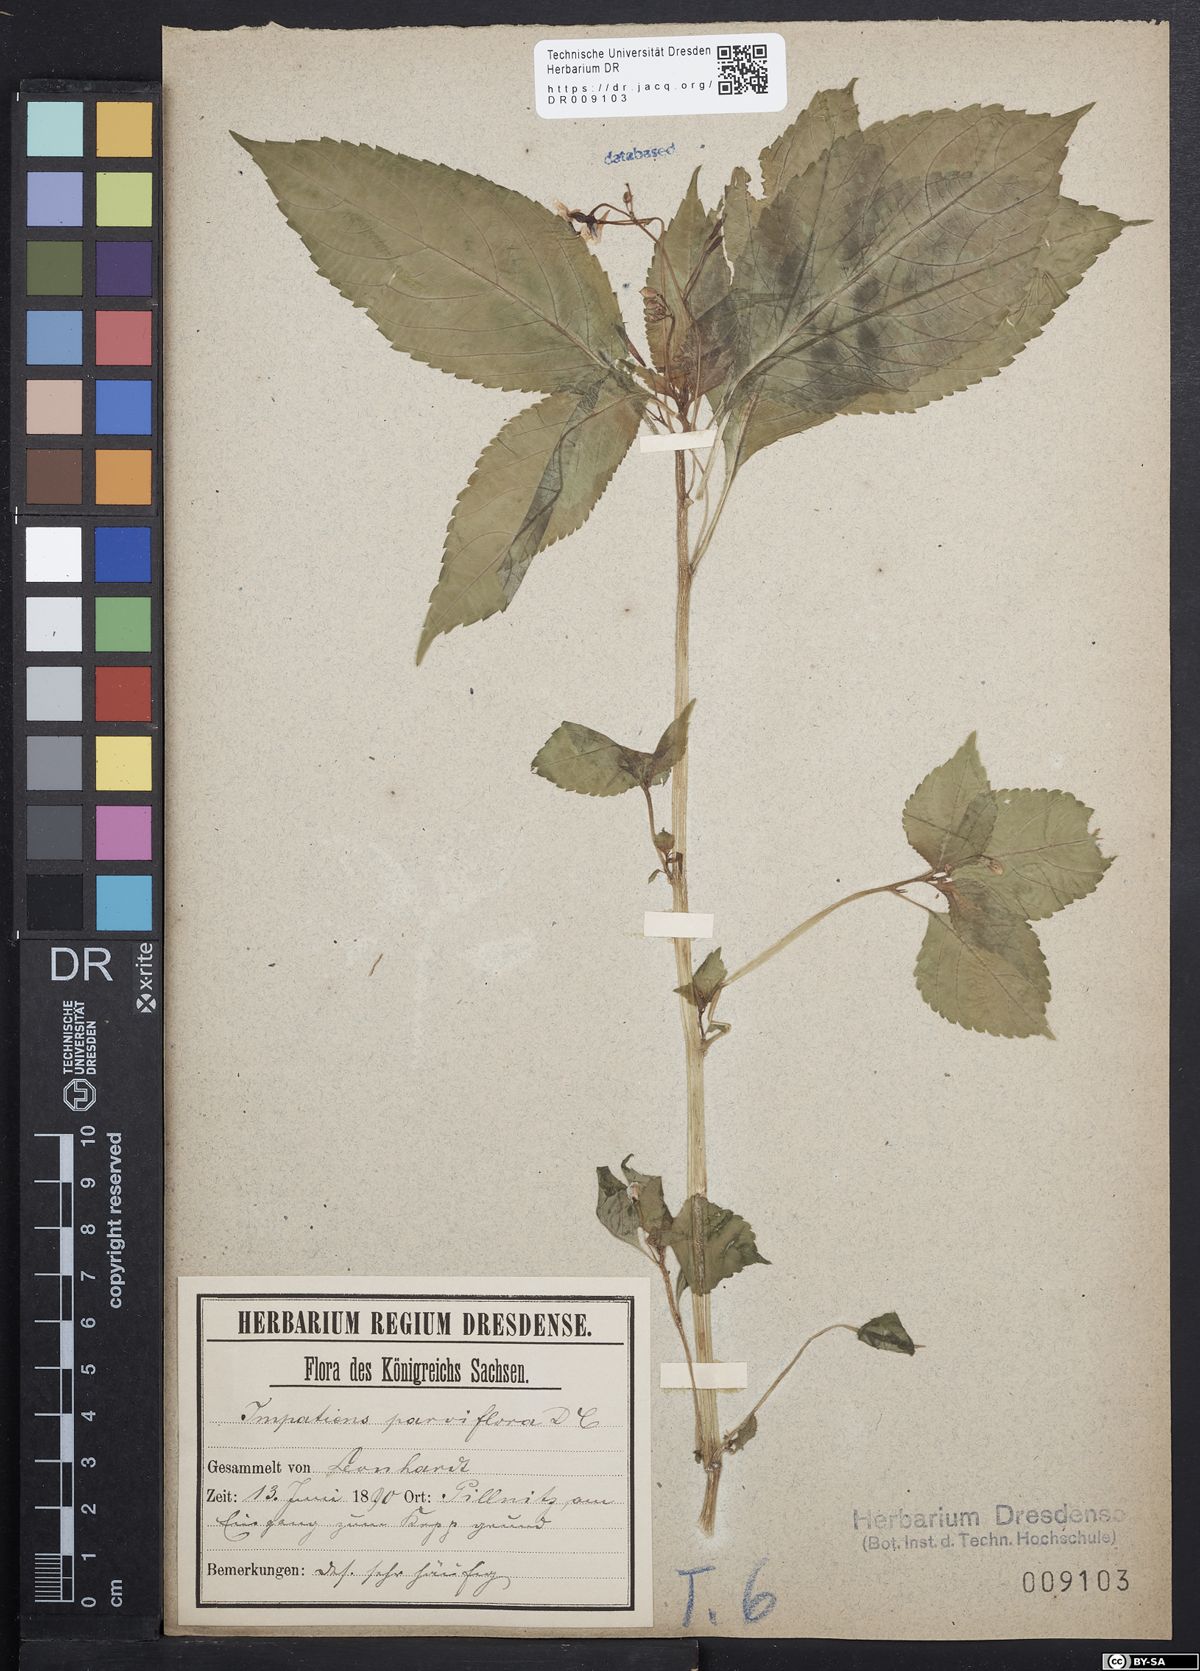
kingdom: Plantae
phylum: Tracheophyta
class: Magnoliopsida
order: Ericales
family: Balsaminaceae
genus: Impatiens
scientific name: Impatiens parviflora
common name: Small balsam
